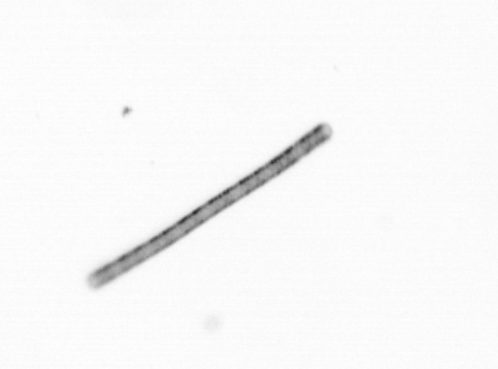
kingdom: Chromista
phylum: Ochrophyta
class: Bacillariophyceae
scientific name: Bacillariophyceae
